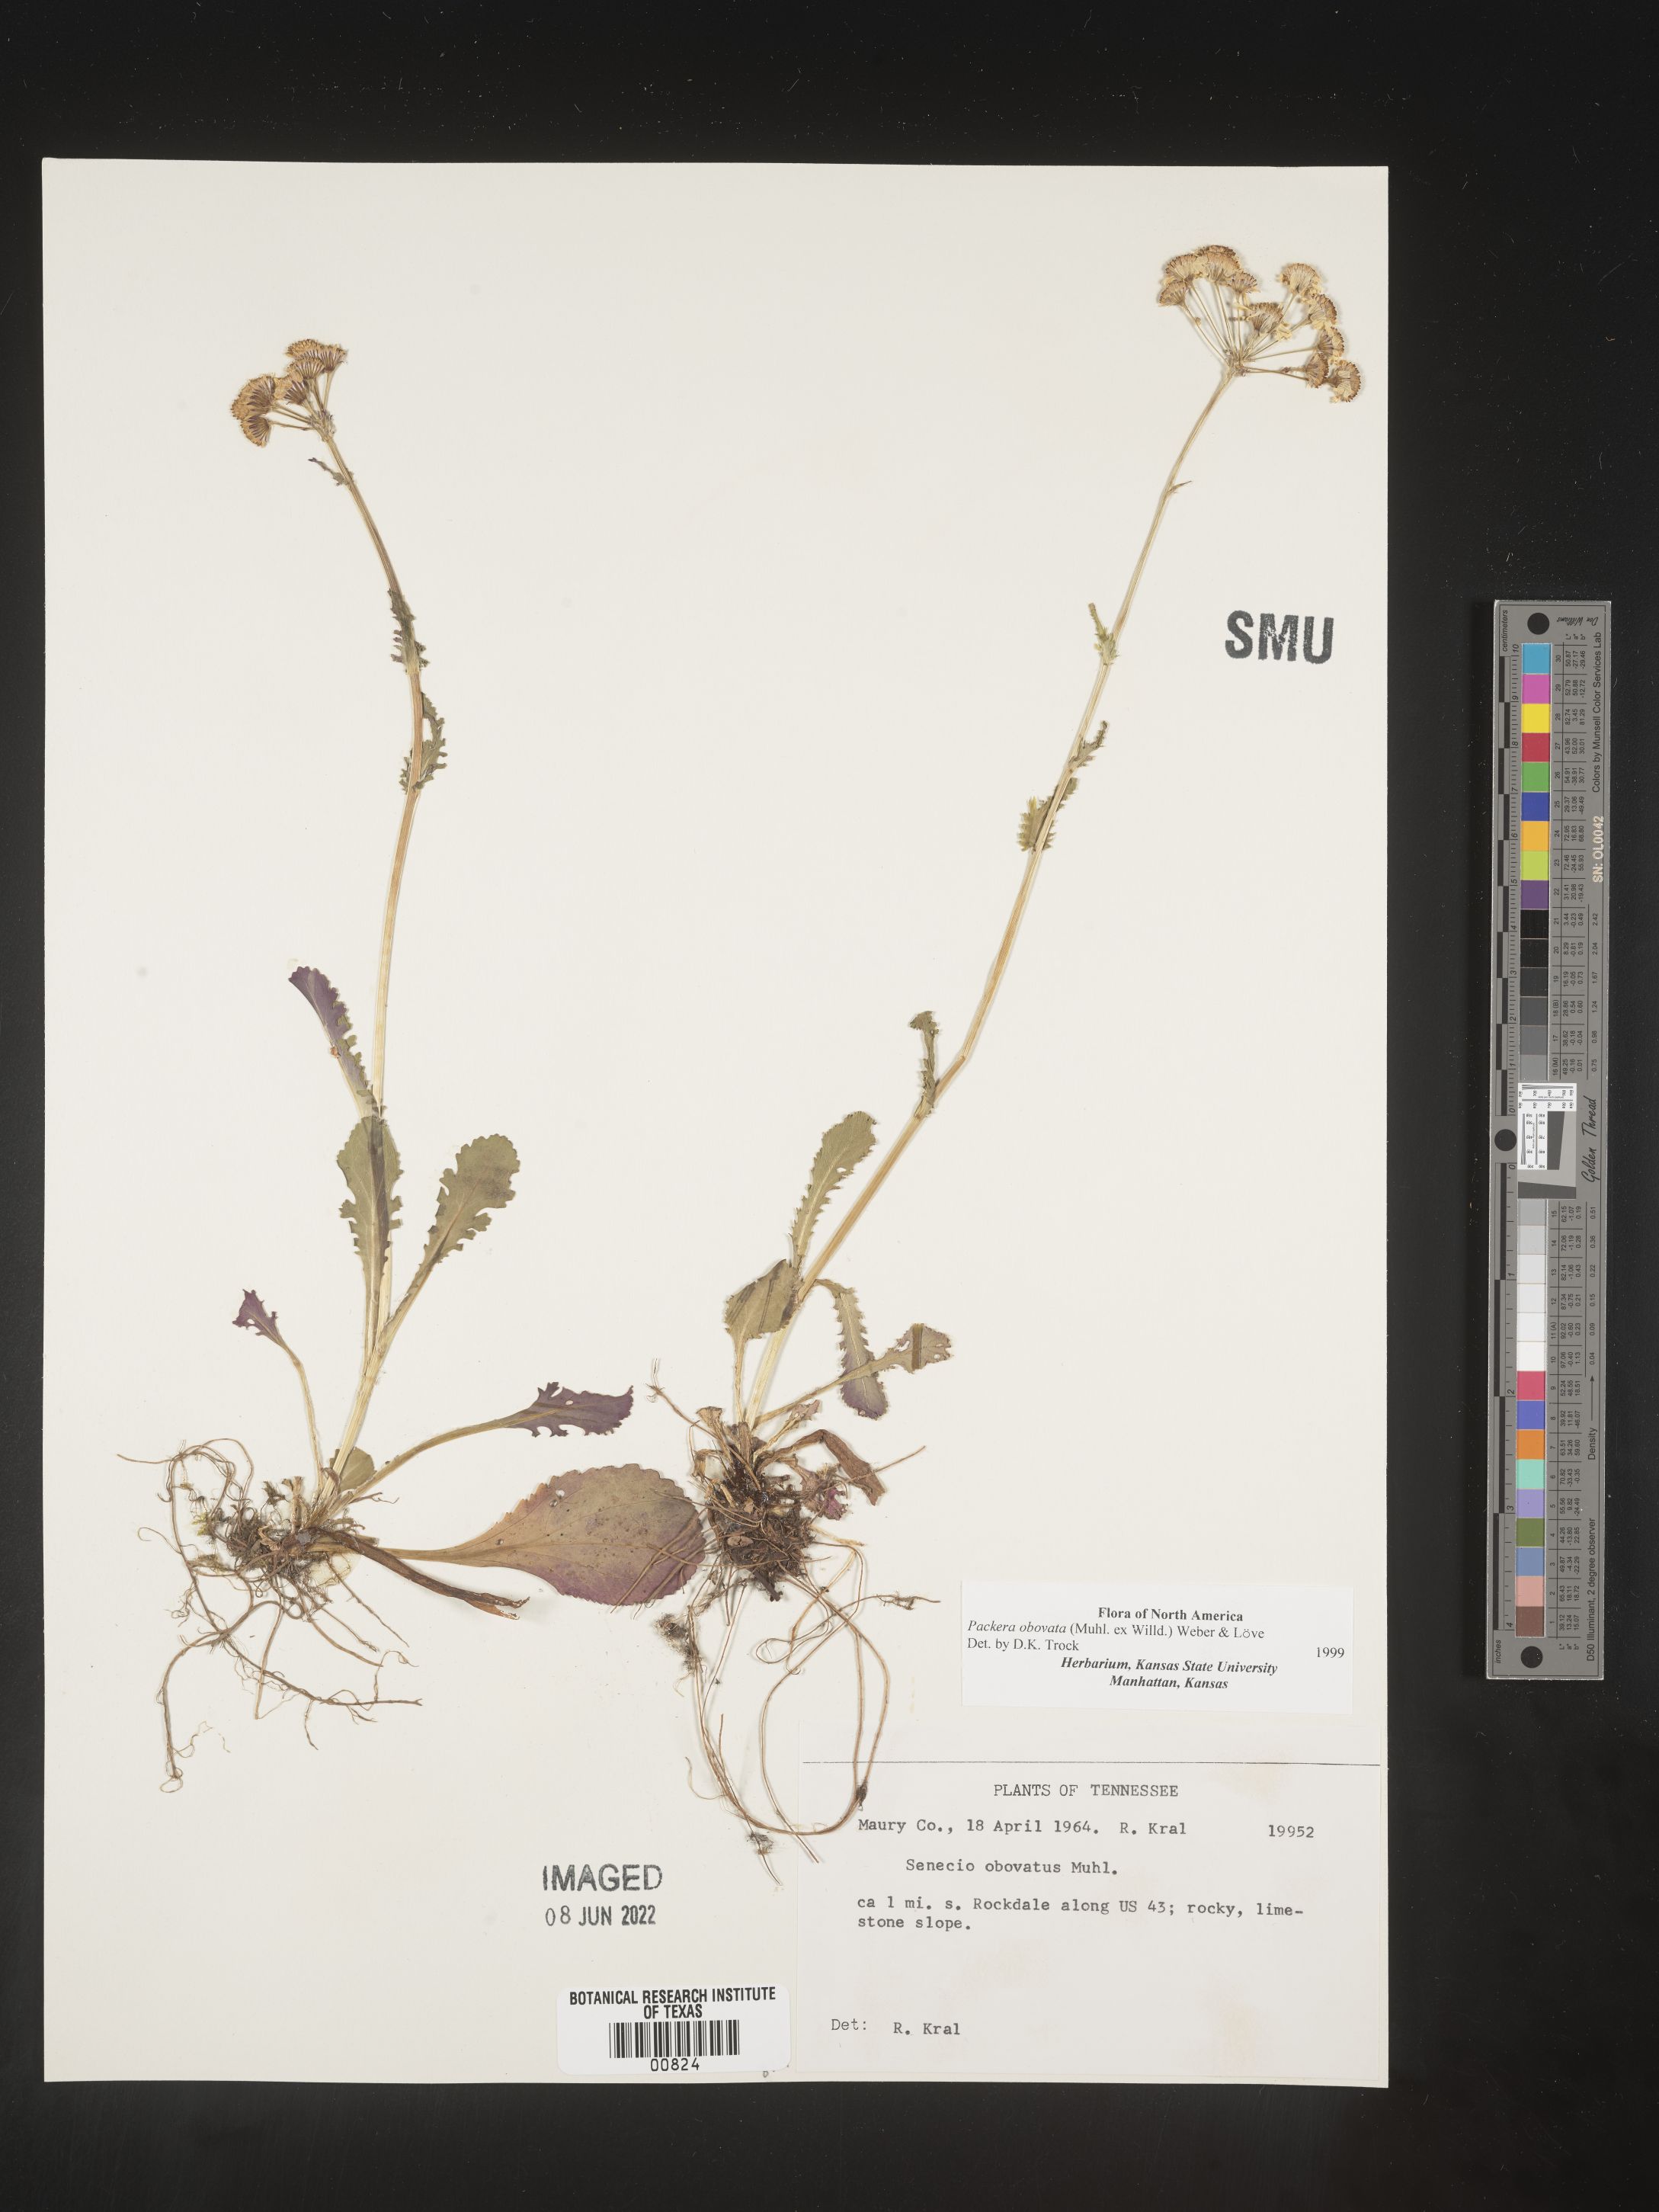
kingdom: Plantae
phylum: Tracheophyta
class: Magnoliopsida
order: Asterales
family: Asteraceae
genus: Packera
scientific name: Packera obovata
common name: Round-leaf ragwort
